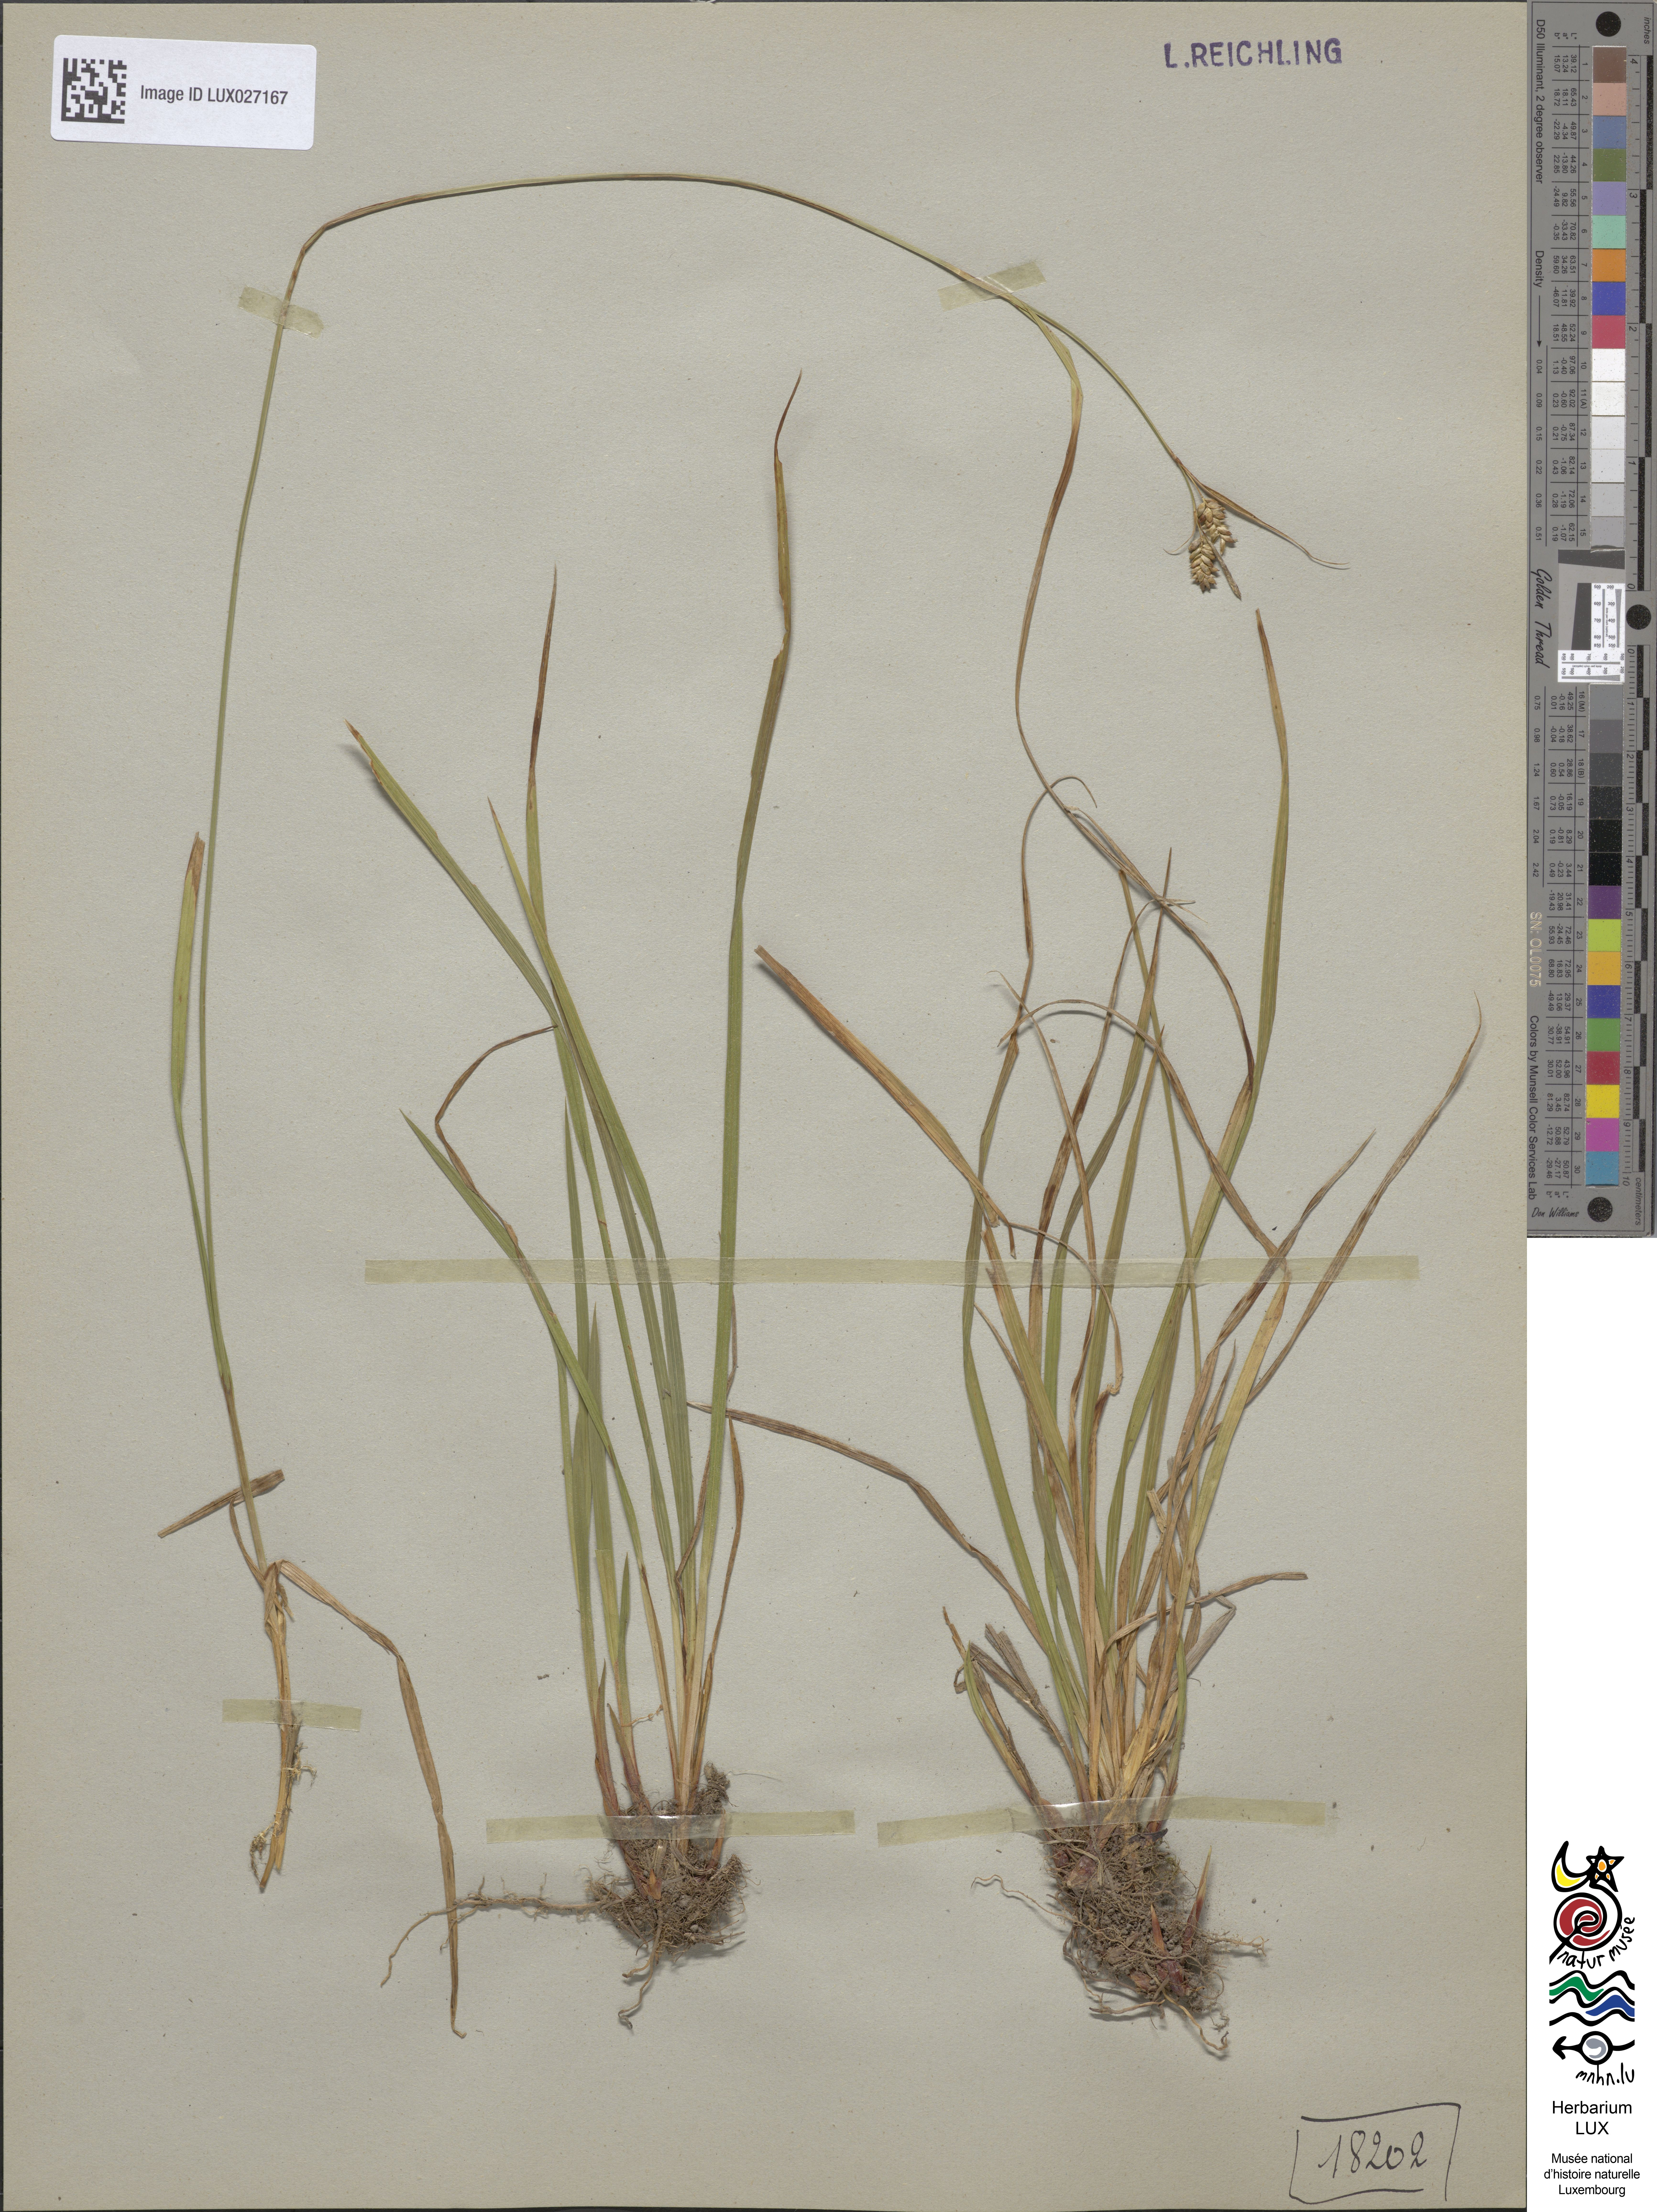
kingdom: Plantae
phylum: Tracheophyta
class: Liliopsida
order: Poales
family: Cyperaceae
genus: Carex
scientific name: Carex pallescens
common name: Pale sedge
